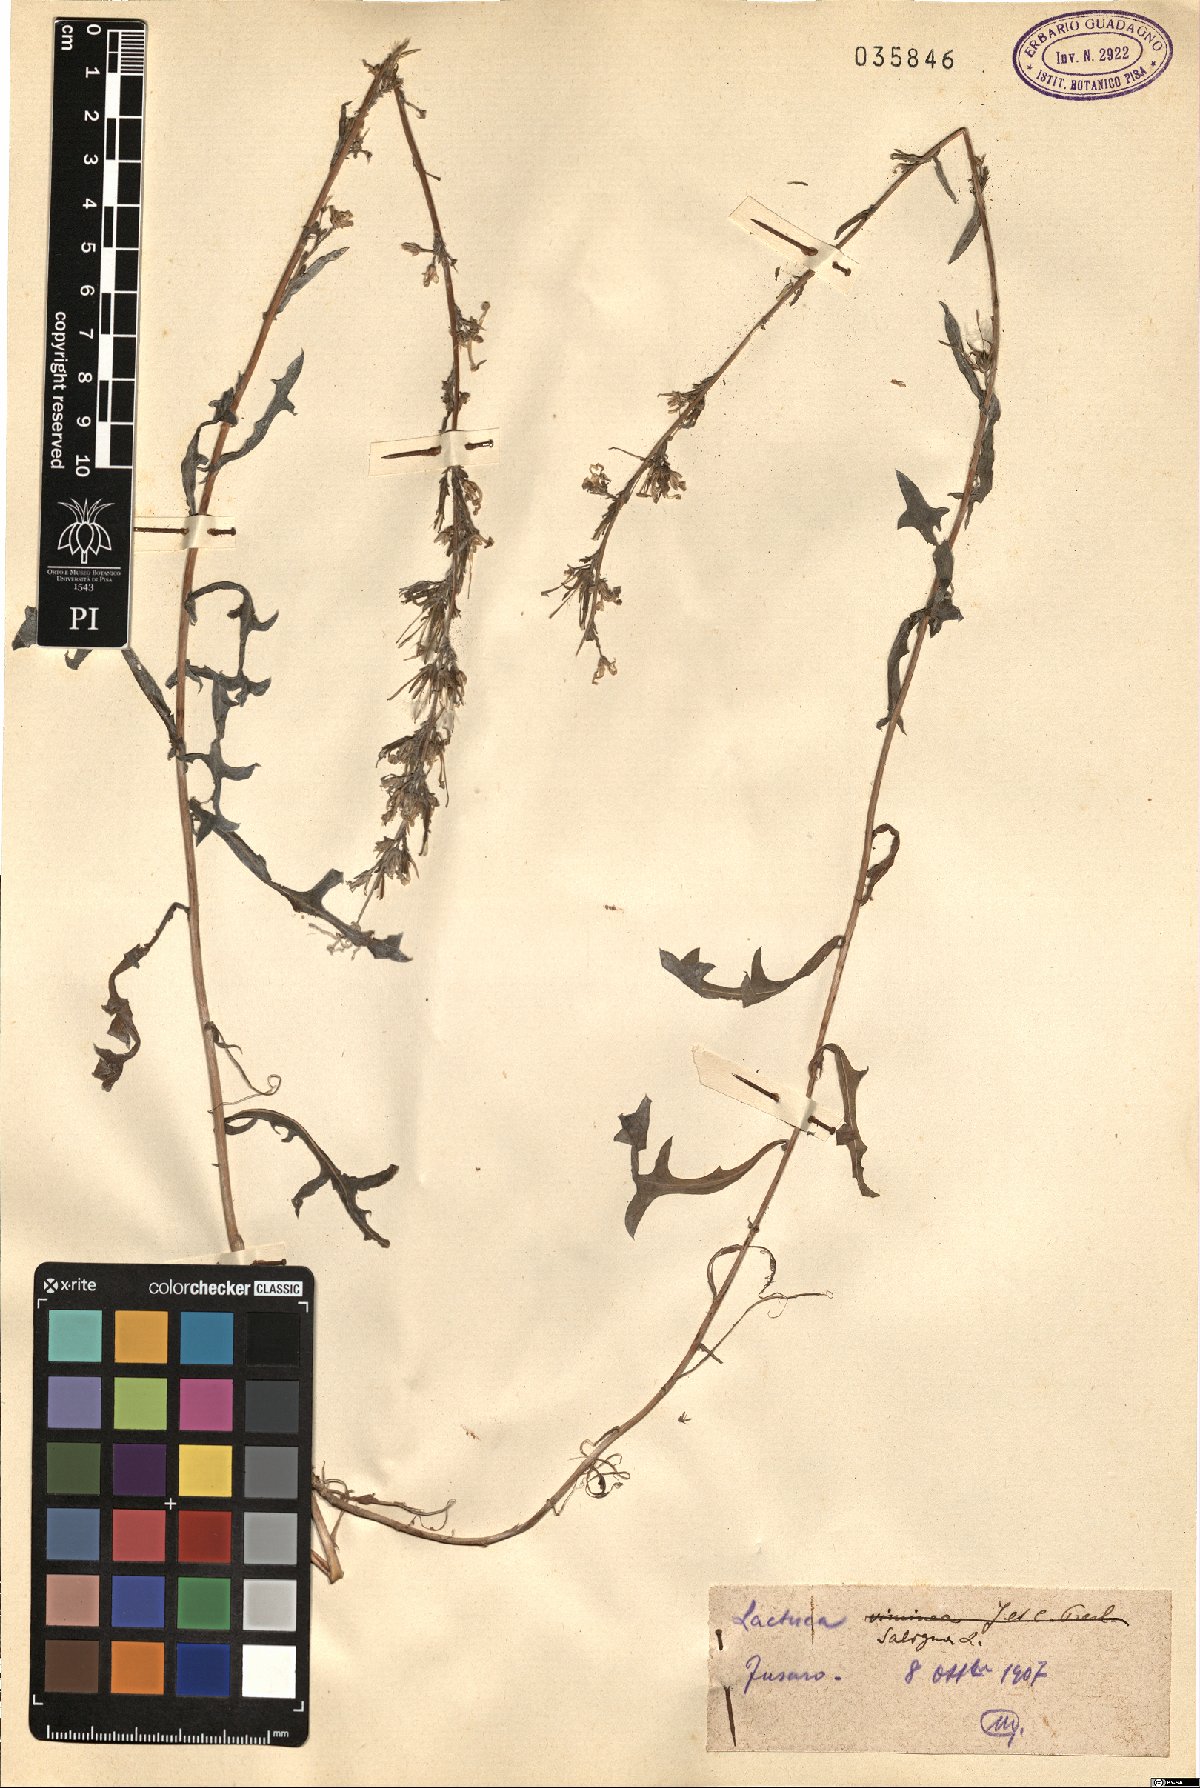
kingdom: Plantae
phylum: Tracheophyta
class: Magnoliopsida
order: Asterales
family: Asteraceae
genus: Lactuca
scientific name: Lactuca saligna
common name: Wild lettuce
